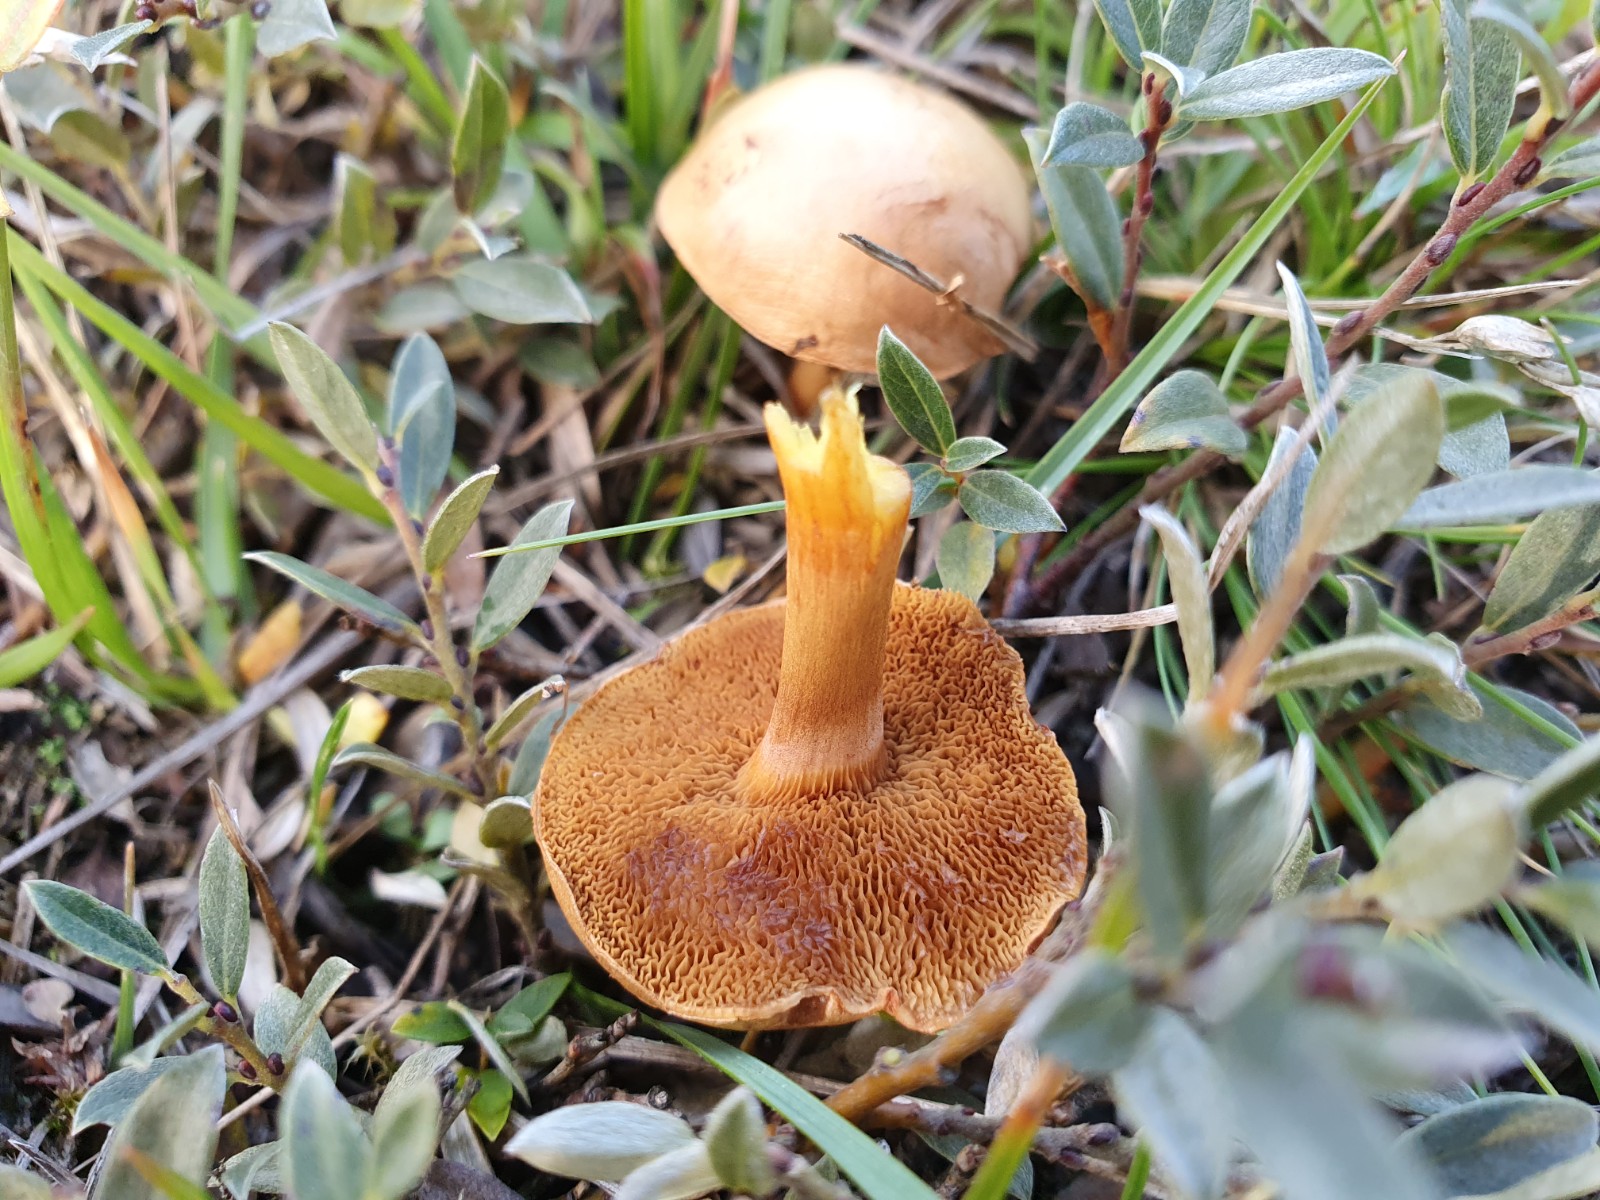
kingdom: Fungi
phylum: Basidiomycota
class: Agaricomycetes
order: Boletales
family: Suillaceae
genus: Suillus
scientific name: Suillus bovinus
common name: grovporet slimrørhat
